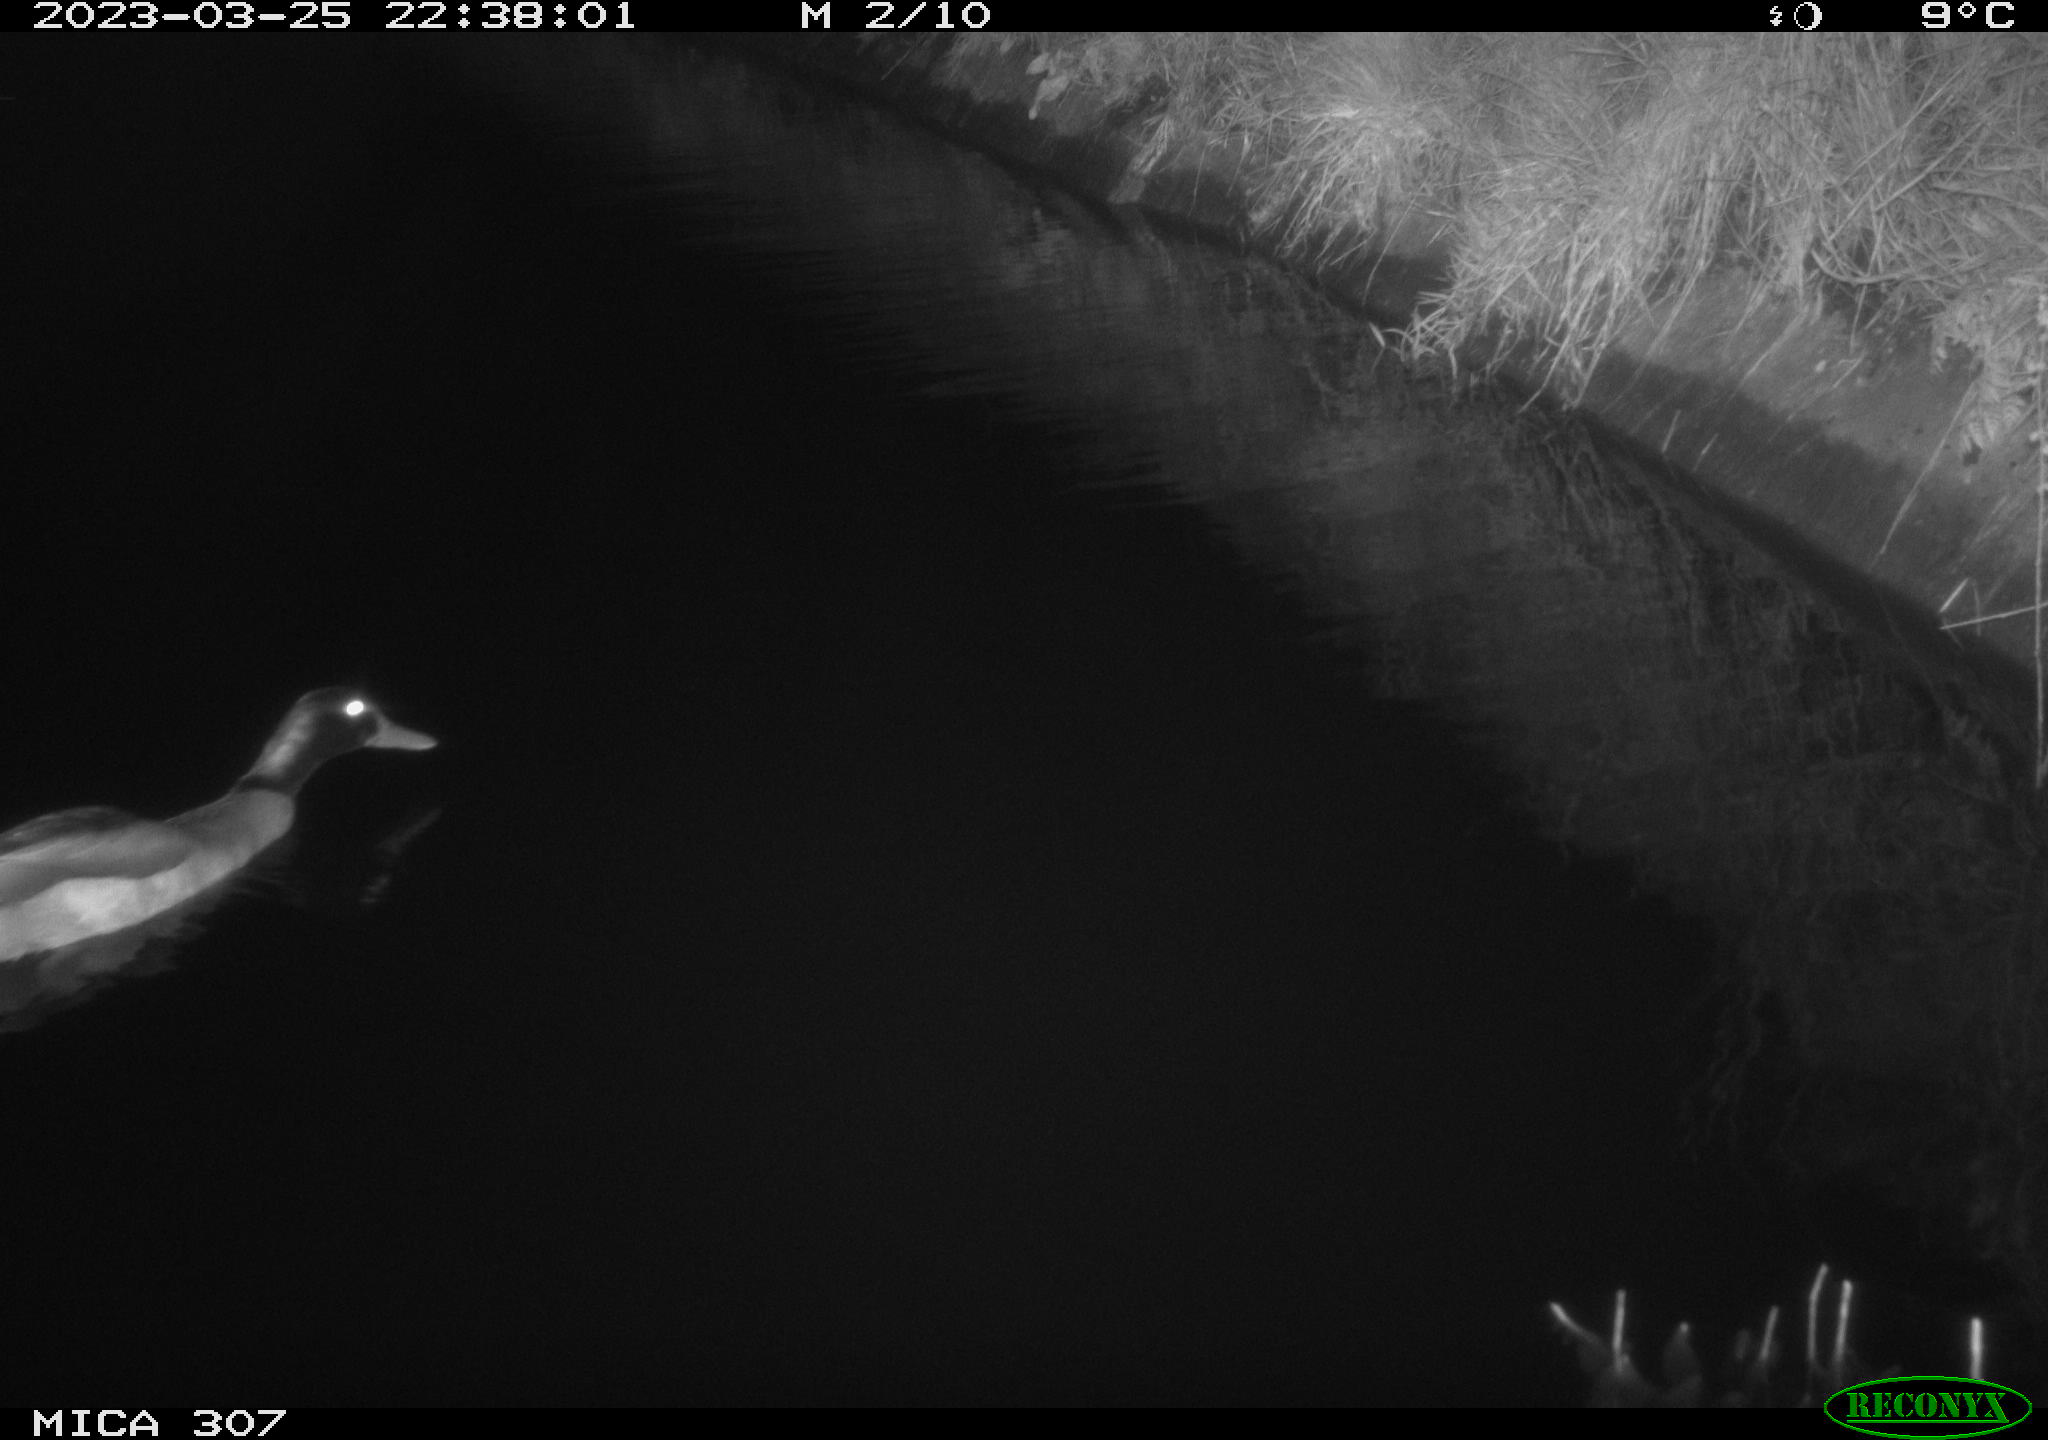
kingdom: Animalia
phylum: Chordata
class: Aves
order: Anseriformes
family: Anatidae
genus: Anas
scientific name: Anas
